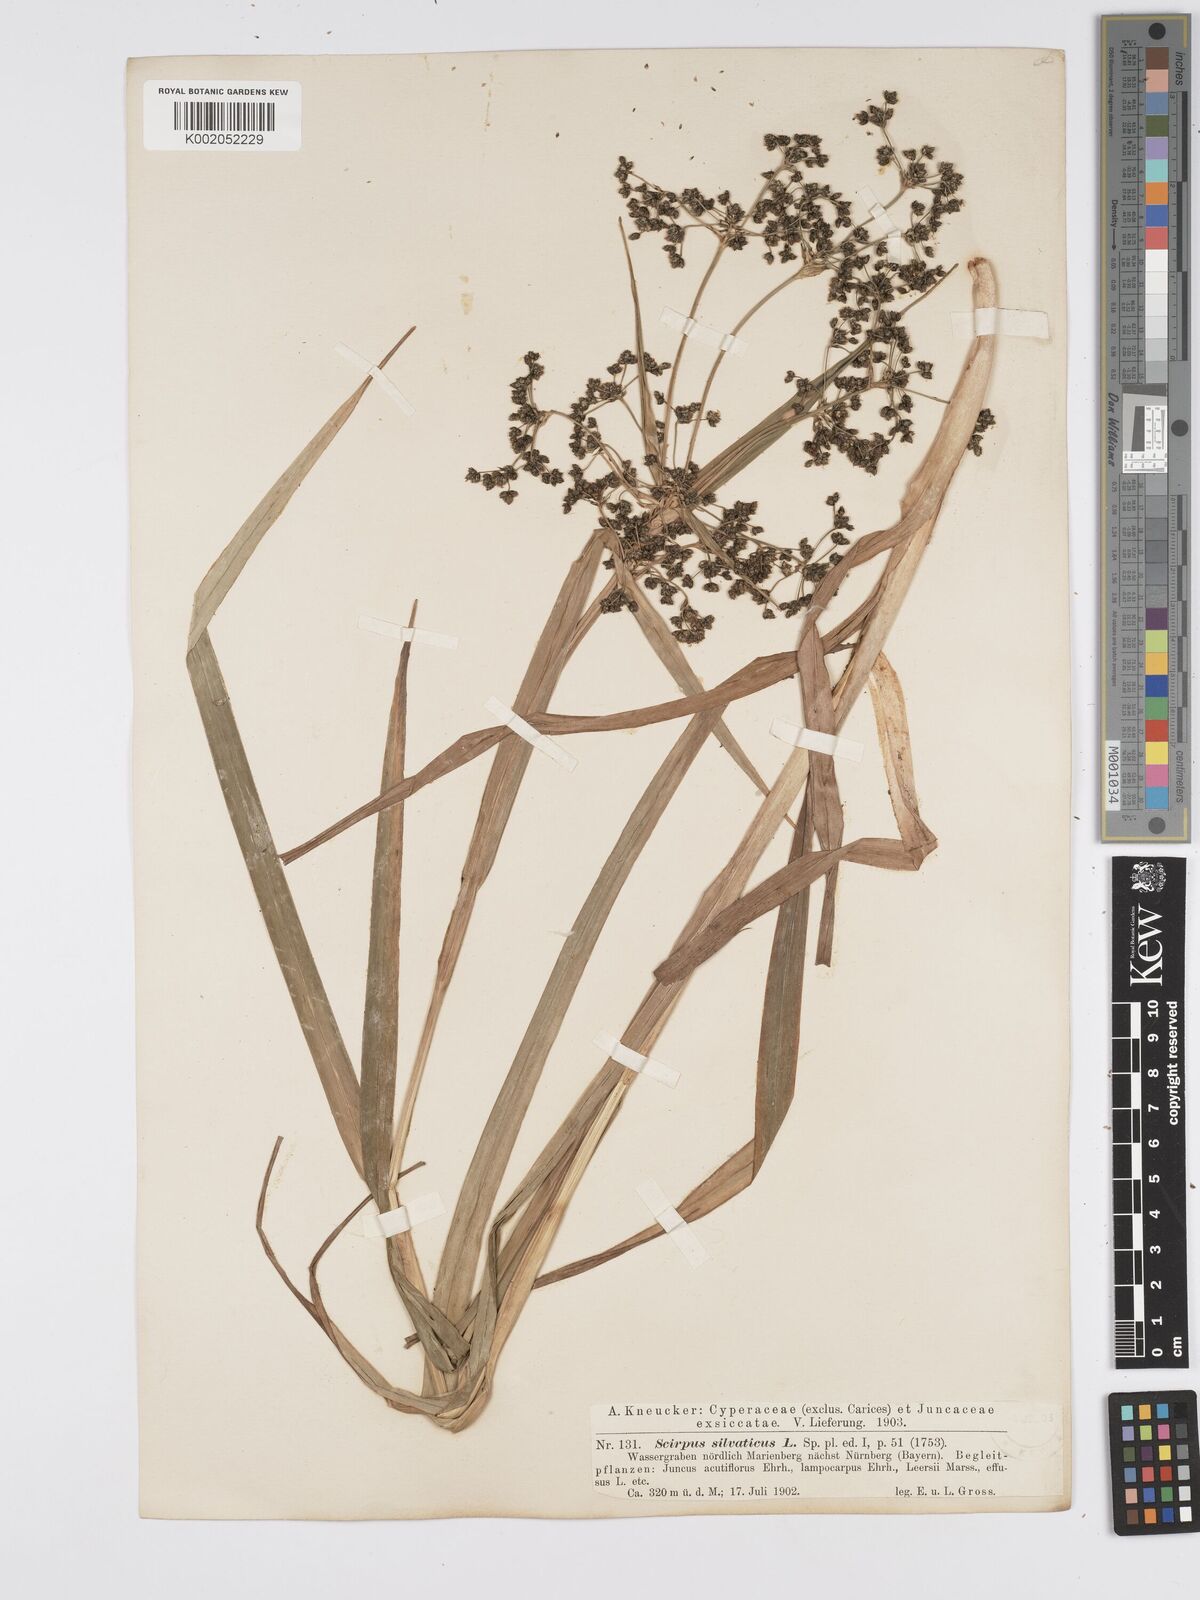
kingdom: Plantae
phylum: Tracheophyta
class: Liliopsida
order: Poales
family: Cyperaceae
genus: Scirpus
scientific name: Scirpus sylvaticus
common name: Wood club-rush
